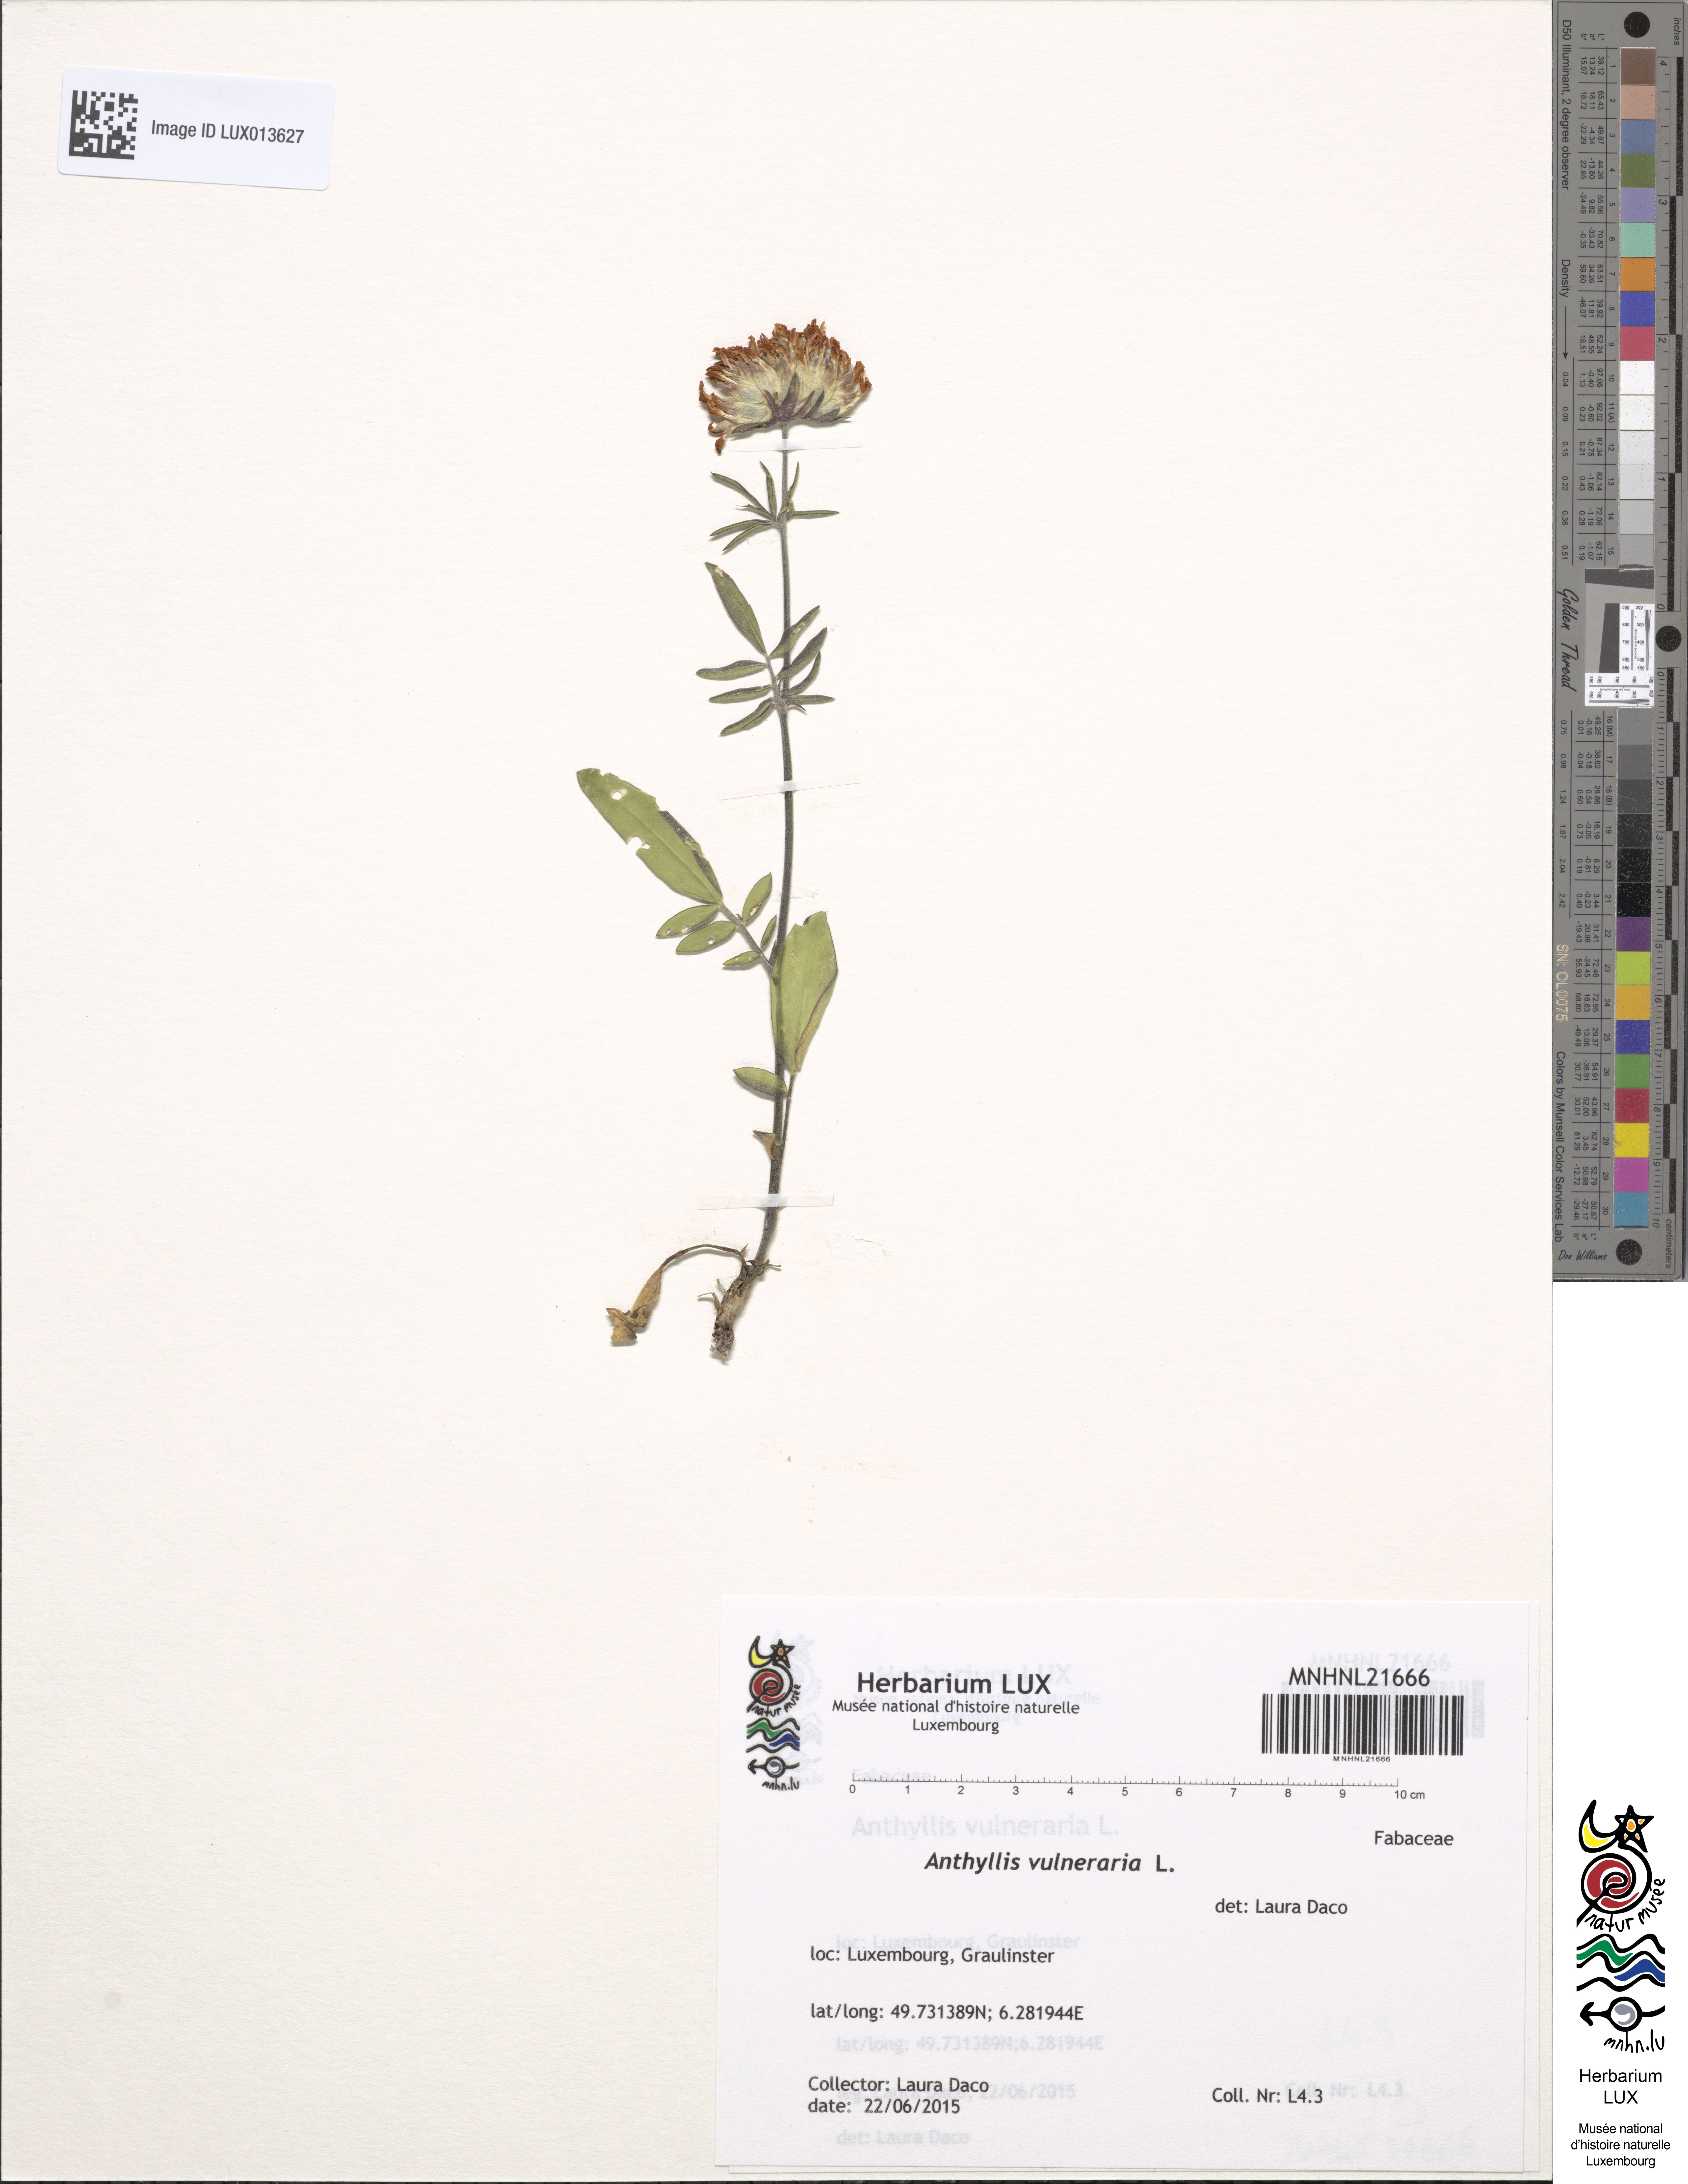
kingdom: Plantae
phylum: Tracheophyta
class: Magnoliopsida
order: Fabales
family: Fabaceae
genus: Anthyllis
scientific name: Anthyllis vulneraria
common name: Kidney vetch
